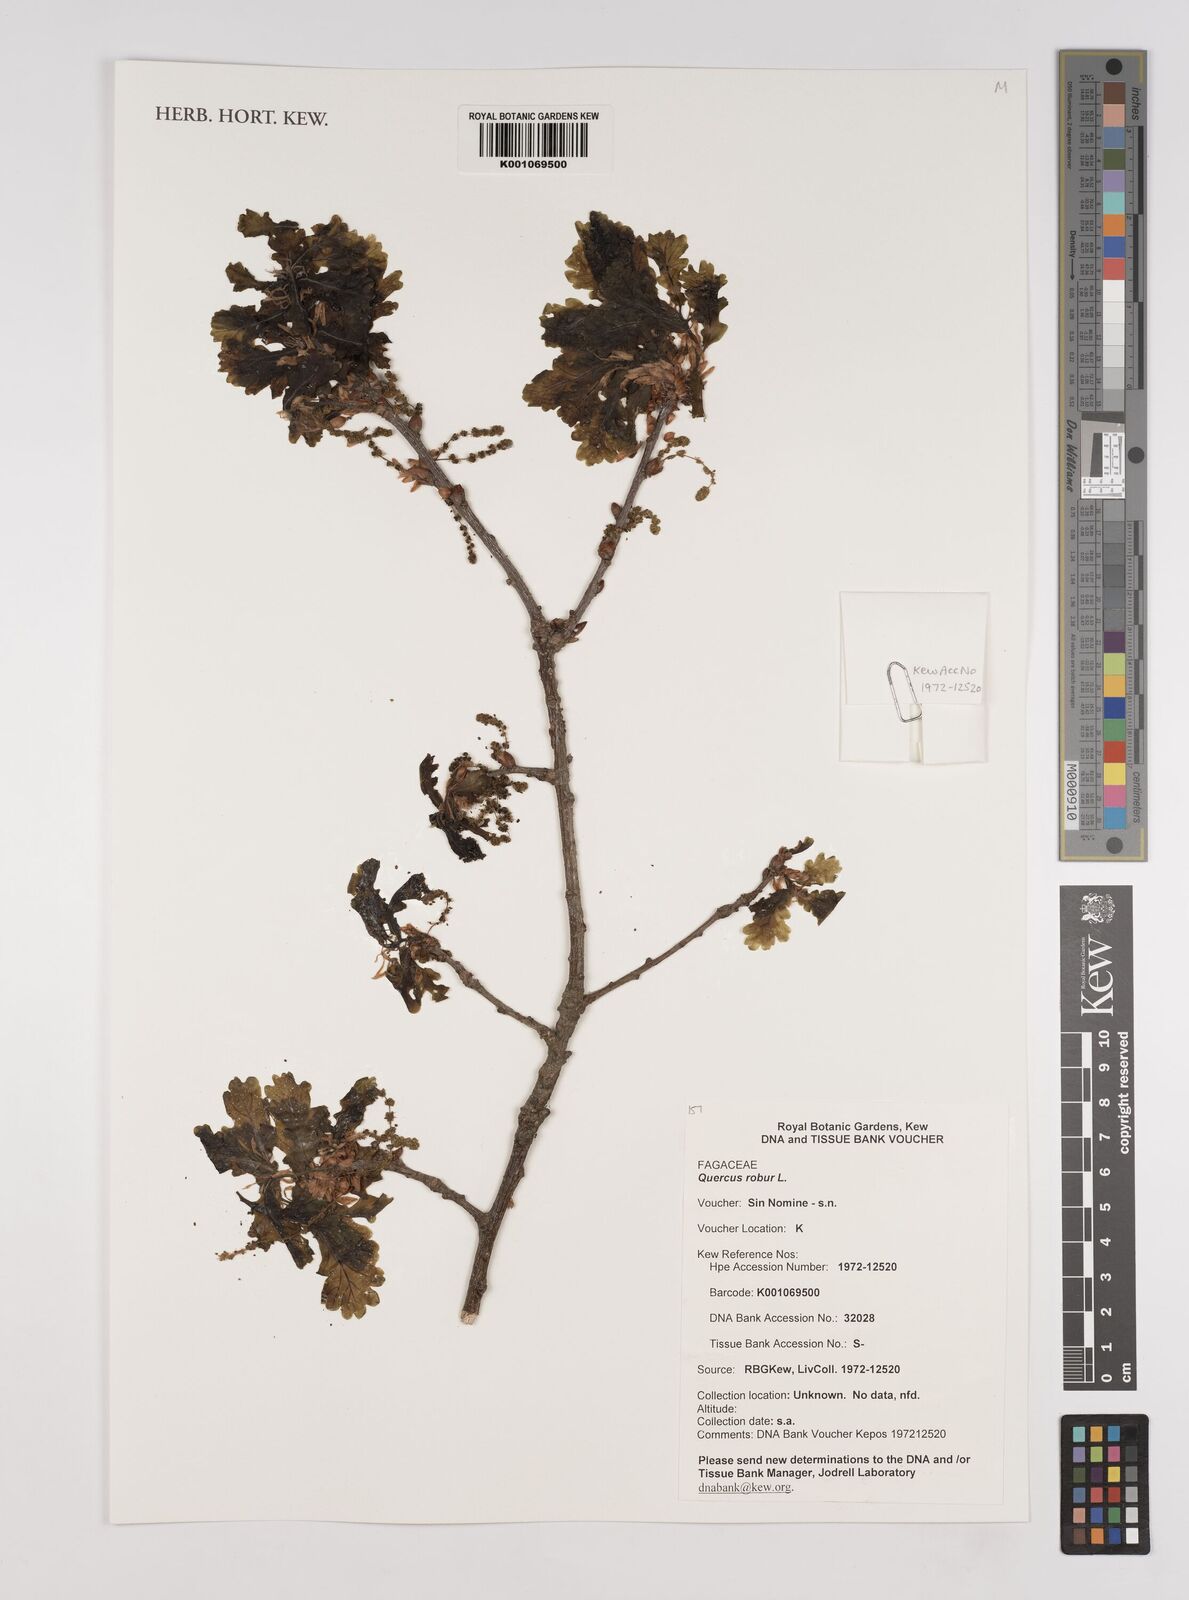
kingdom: Plantae
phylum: Tracheophyta
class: Magnoliopsida
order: Fagales
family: Fagaceae
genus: Quercus
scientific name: Quercus robur
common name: Pedunculate oak
